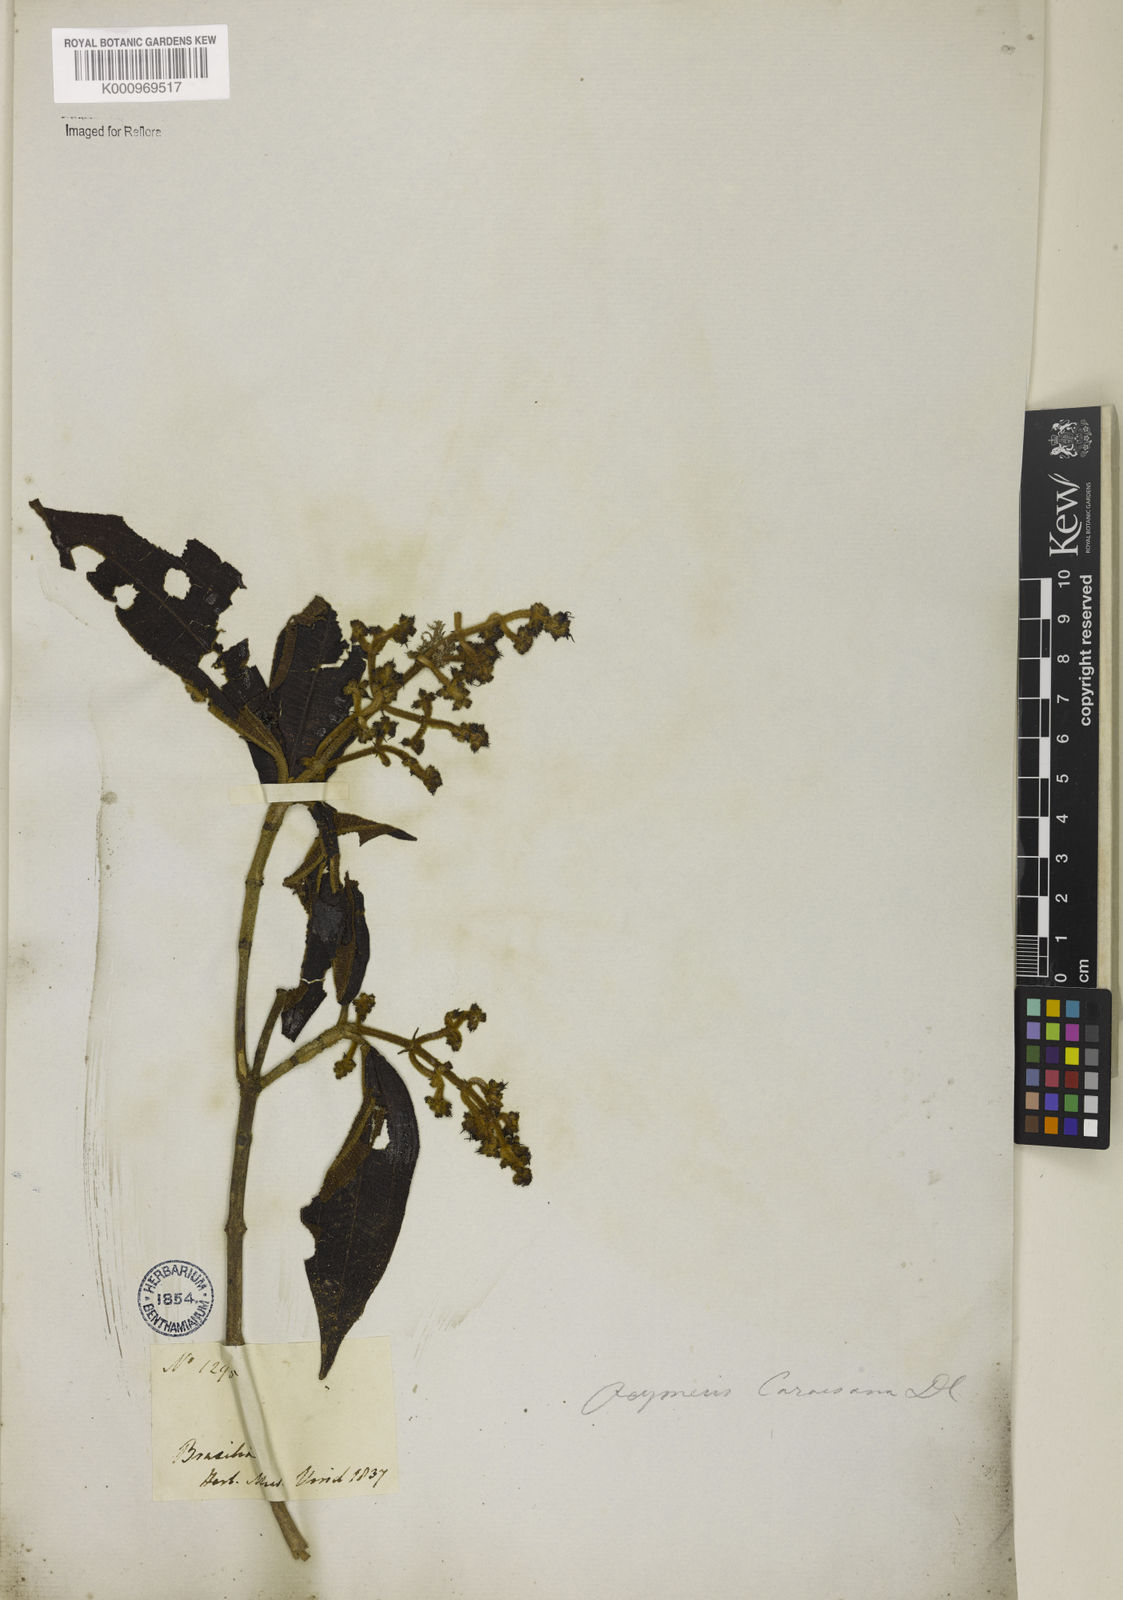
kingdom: Plantae
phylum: Tracheophyta
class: Magnoliopsida
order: Myrtales
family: Melastomataceae
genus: Miconia
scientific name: Miconia sublanata
